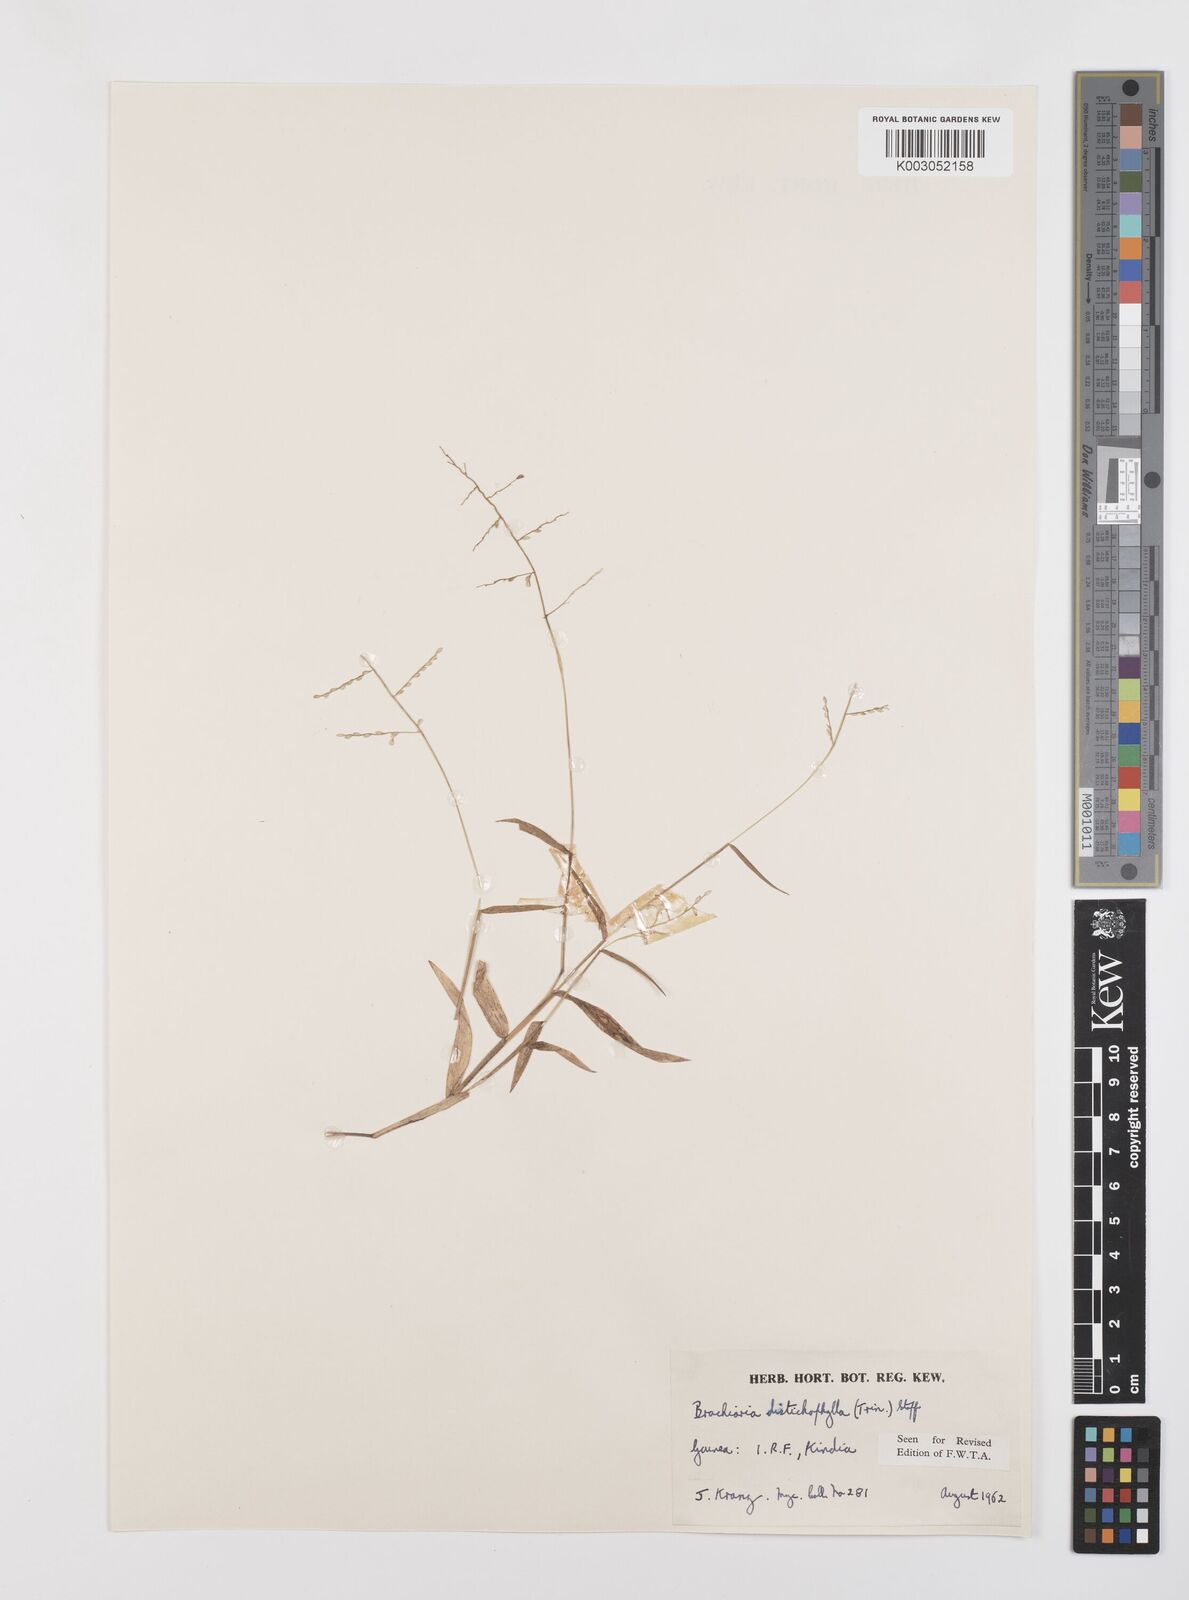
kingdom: Plantae
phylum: Tracheophyta
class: Liliopsida
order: Poales
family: Poaceae
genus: Urochloa
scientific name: Urochloa villosa
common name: Hairy signalgrass
